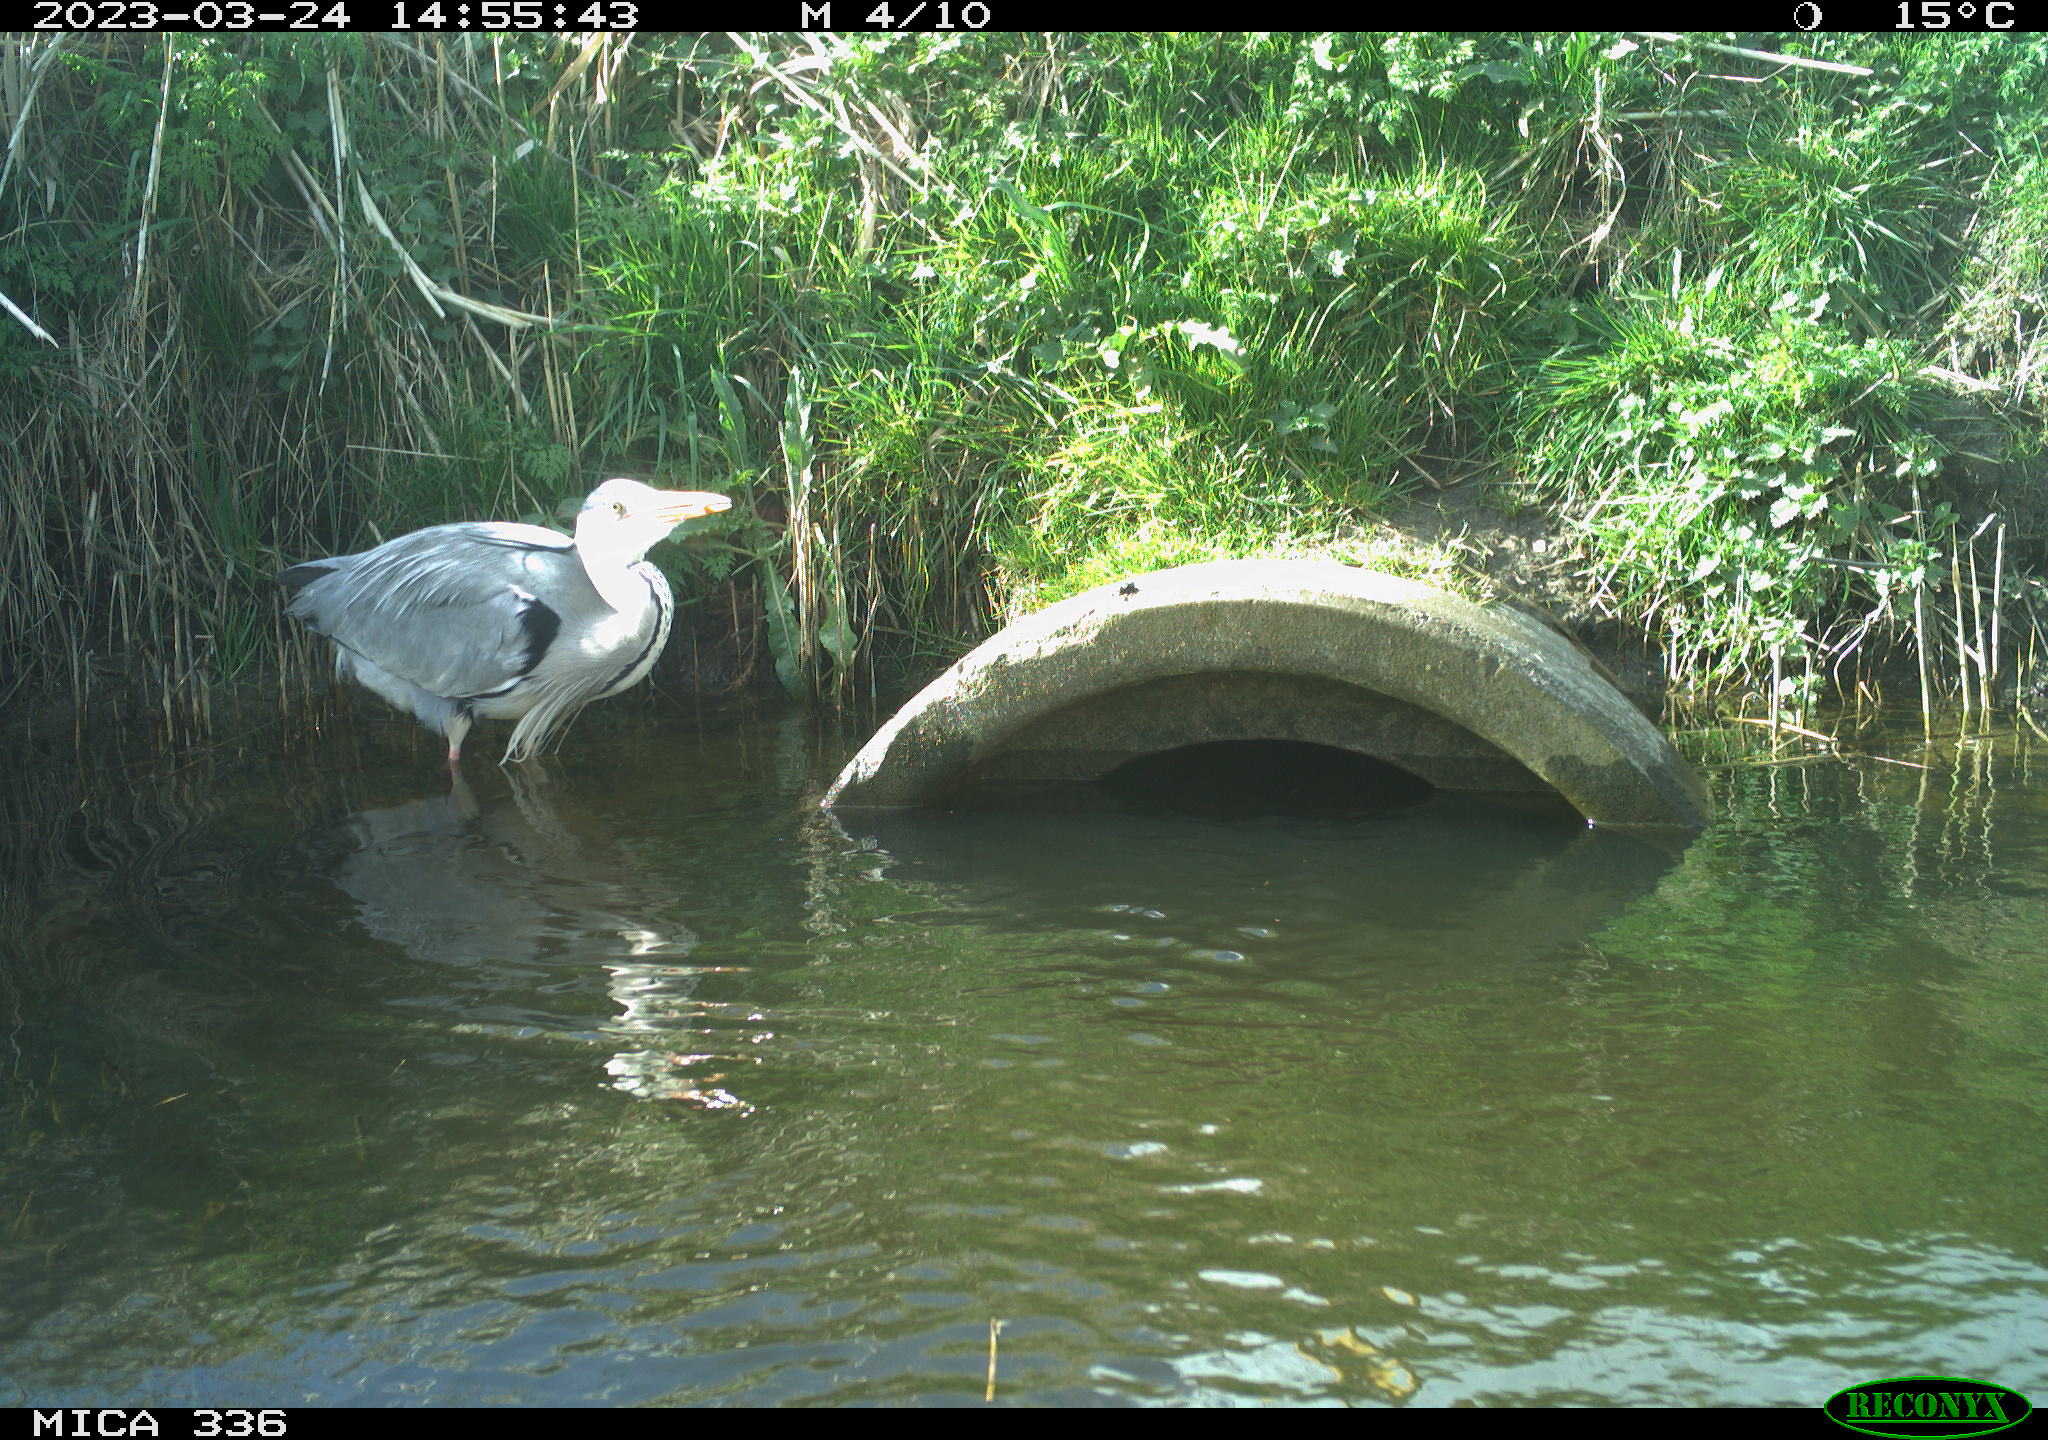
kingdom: Animalia
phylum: Chordata
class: Aves
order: Pelecaniformes
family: Ardeidae
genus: Ardea
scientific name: Ardea cinerea
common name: Grey heron
